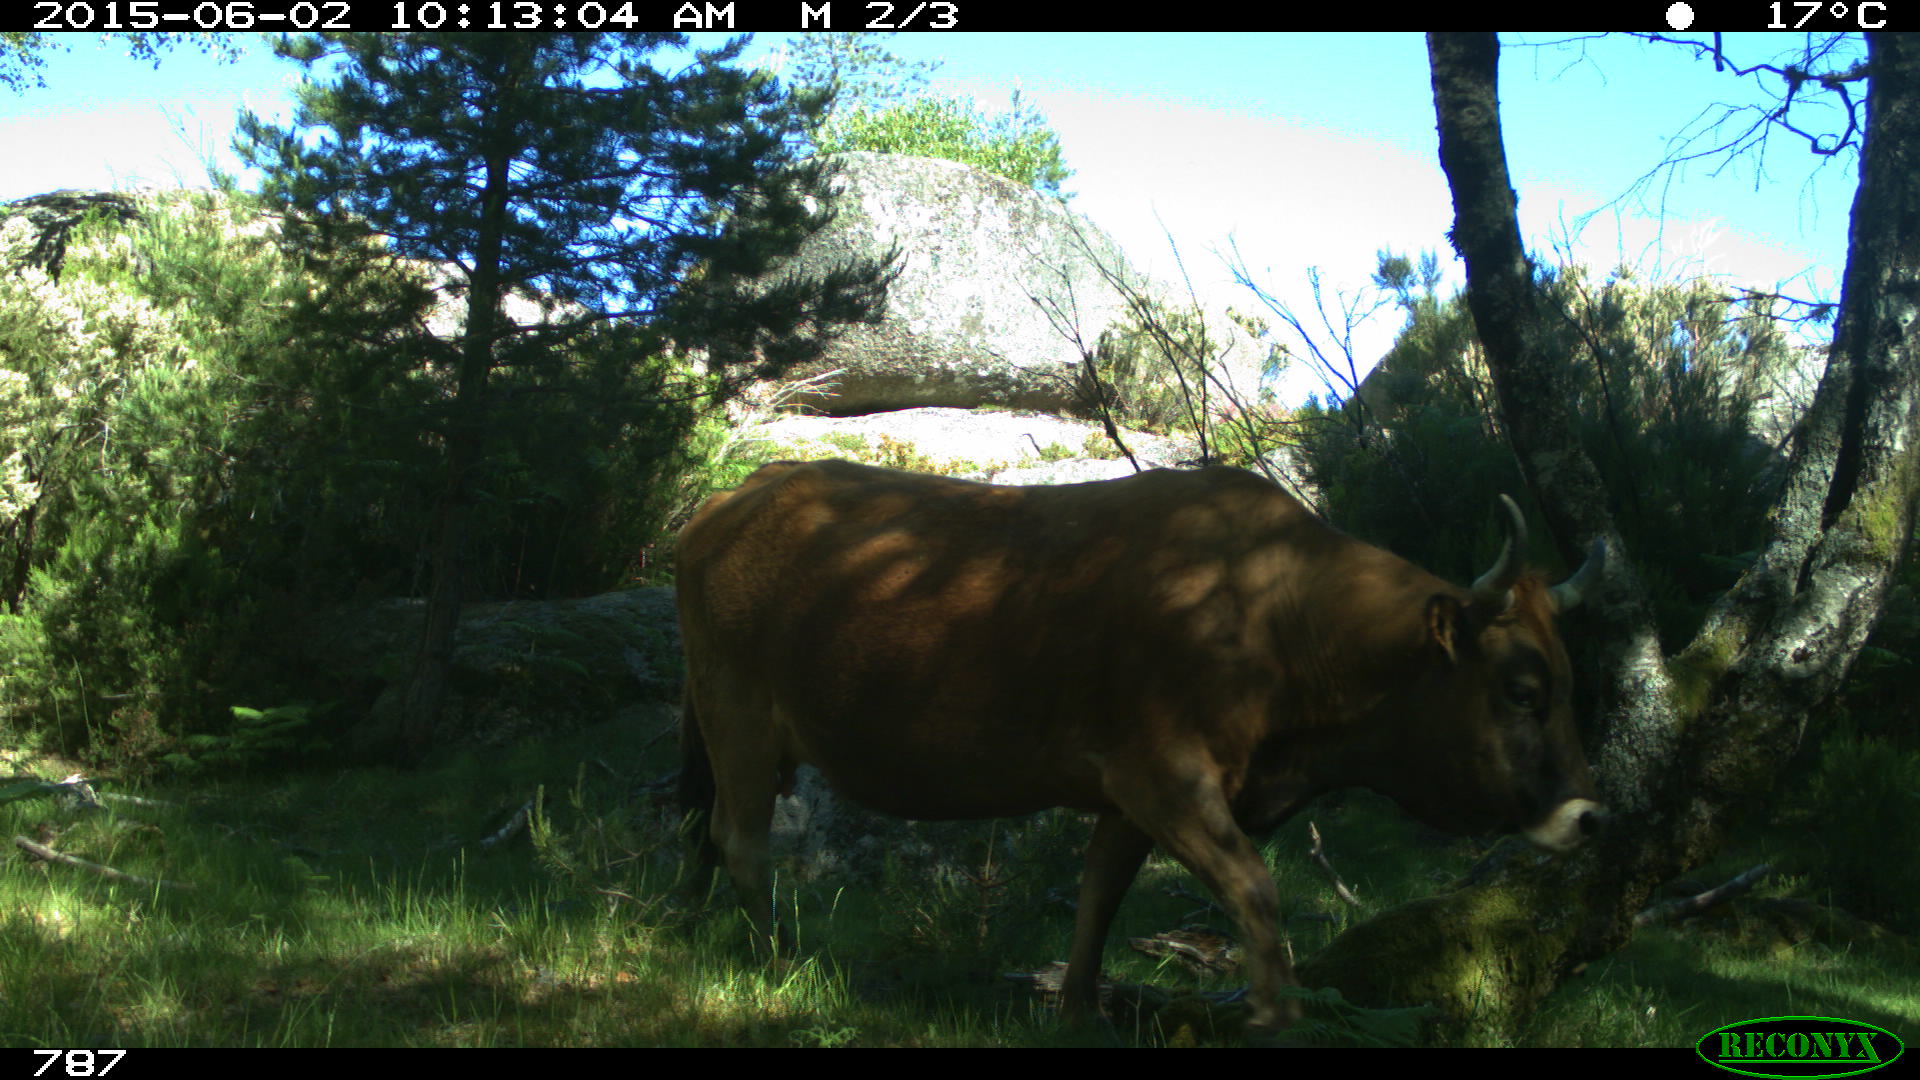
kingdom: Animalia
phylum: Chordata
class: Mammalia
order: Artiodactyla
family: Bovidae
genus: Bos
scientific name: Bos taurus
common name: Domesticated cattle
